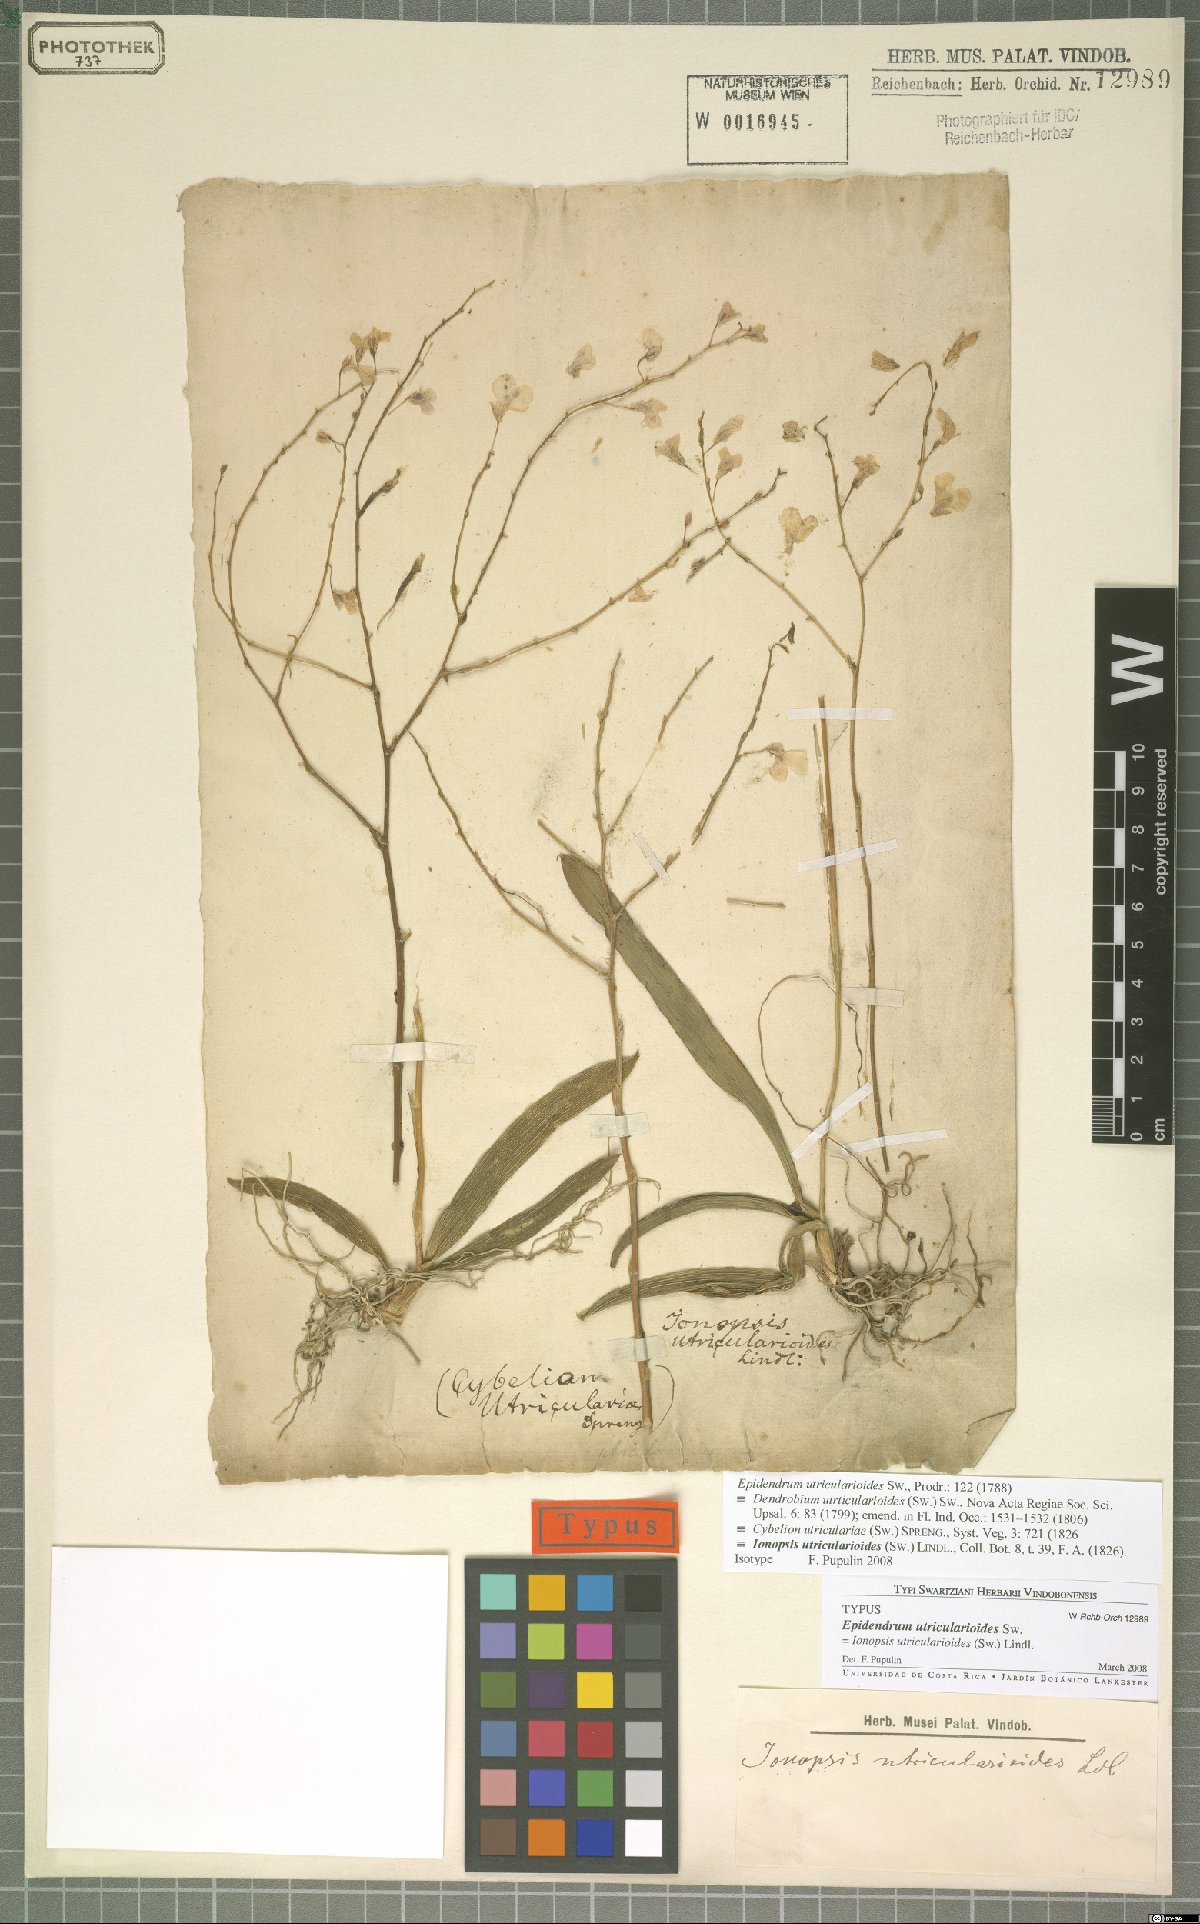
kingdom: Plantae
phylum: Tracheophyta
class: Liliopsida
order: Asparagales
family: Orchidaceae
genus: Ionopsis
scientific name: Ionopsis utricularioides
